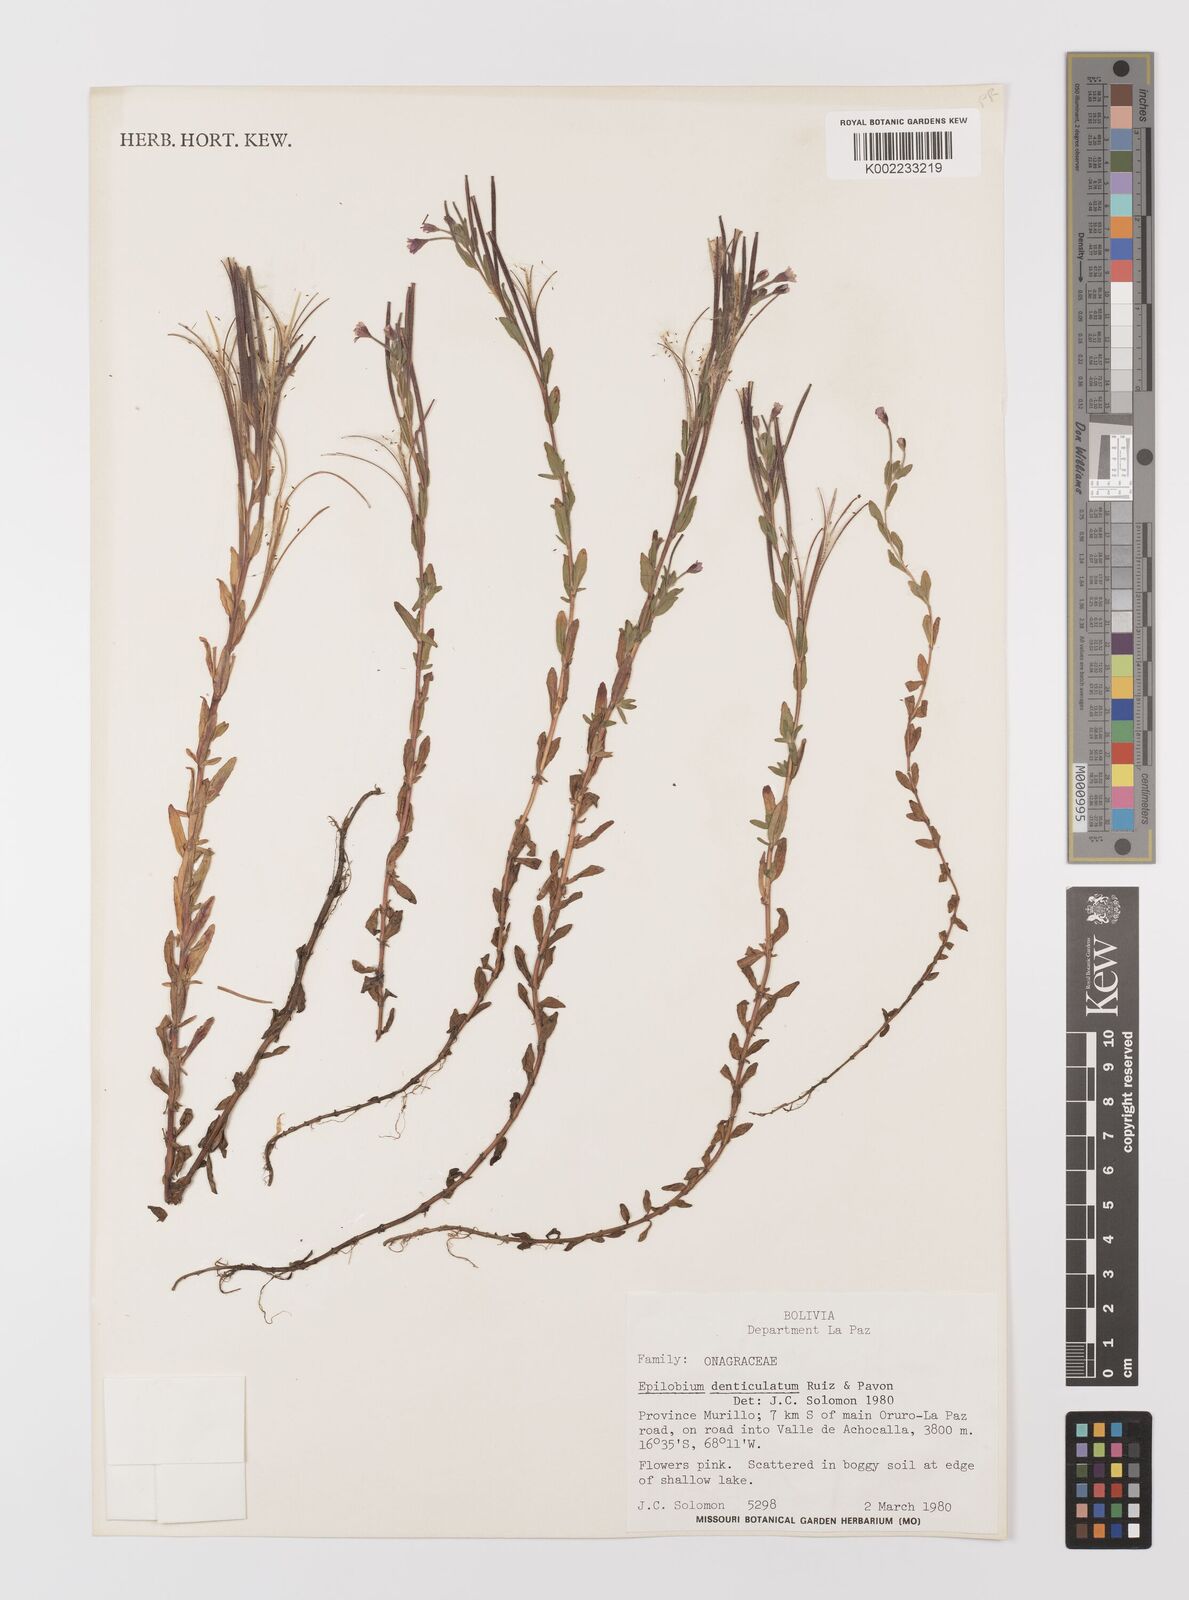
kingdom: Plantae
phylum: Tracheophyta
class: Magnoliopsida
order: Myrtales
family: Onagraceae
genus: Epilobium
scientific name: Epilobium denticulatum
